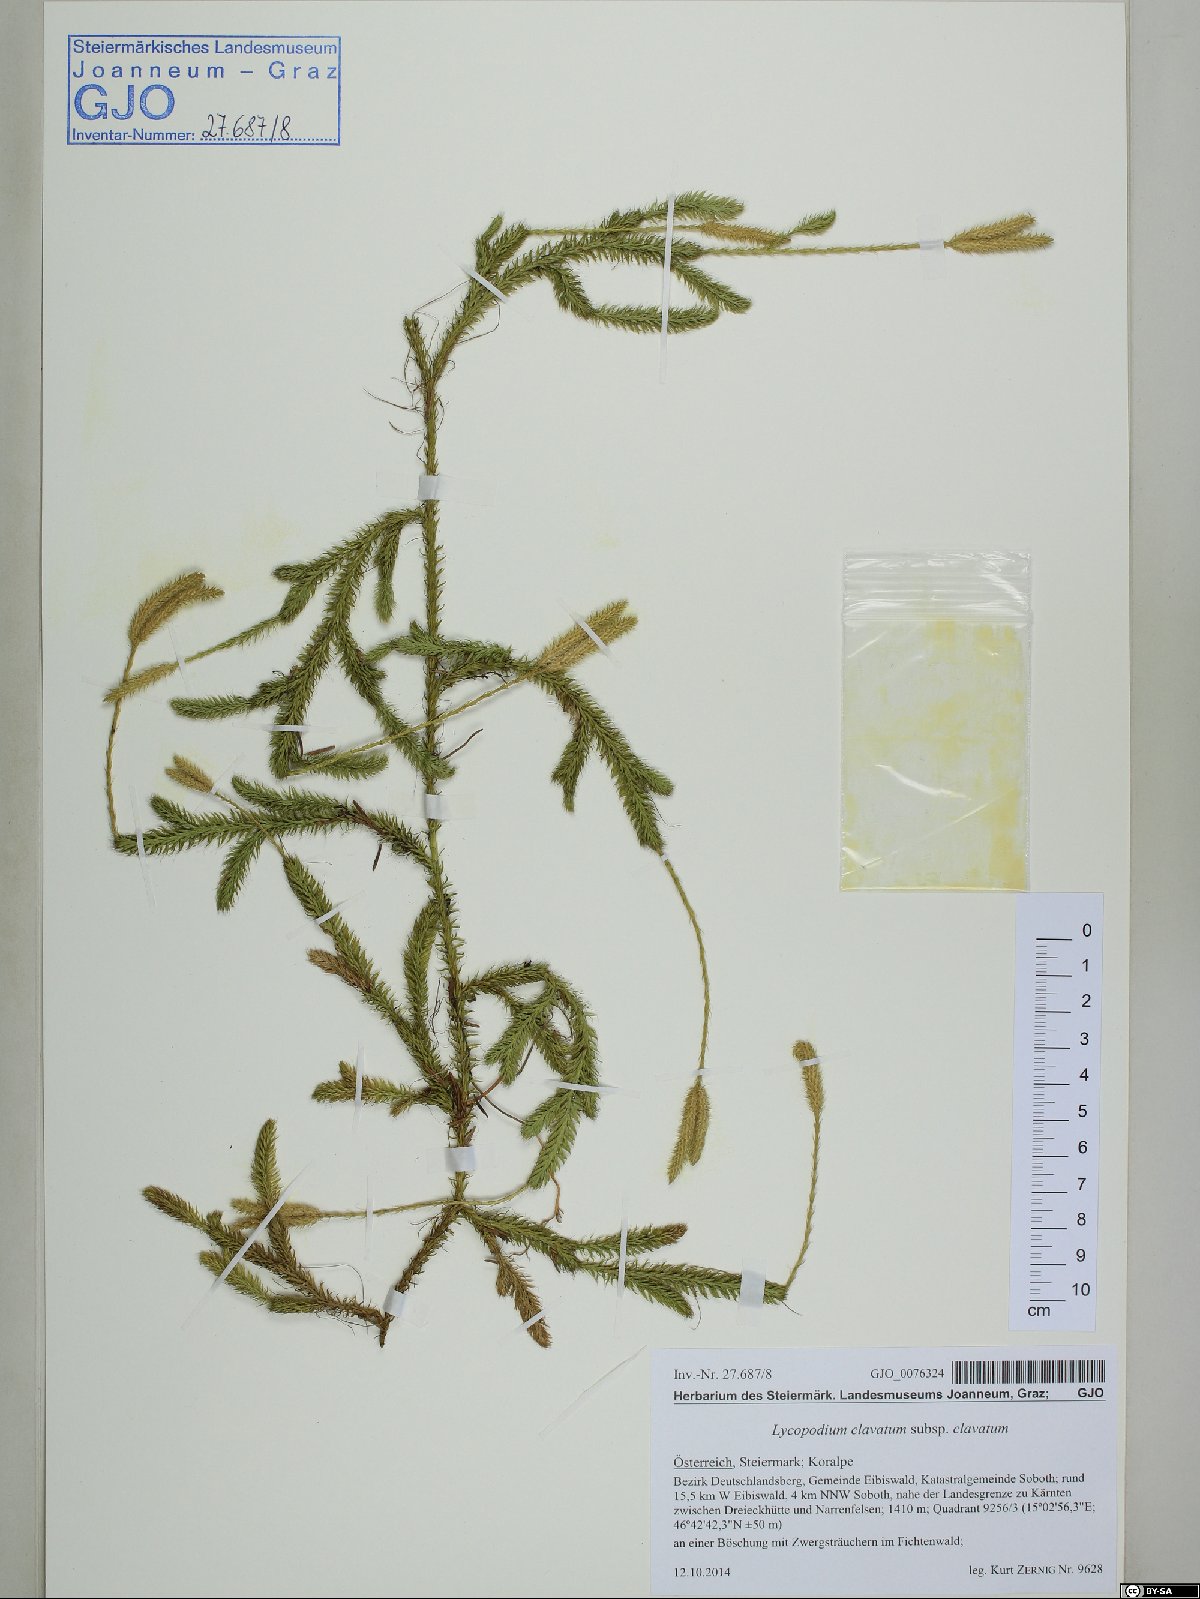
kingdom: Plantae
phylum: Tracheophyta
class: Lycopodiopsida
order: Lycopodiales
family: Lycopodiaceae
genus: Lycopodium
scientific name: Lycopodium clavatum
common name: Stag's-horn clubmoss
